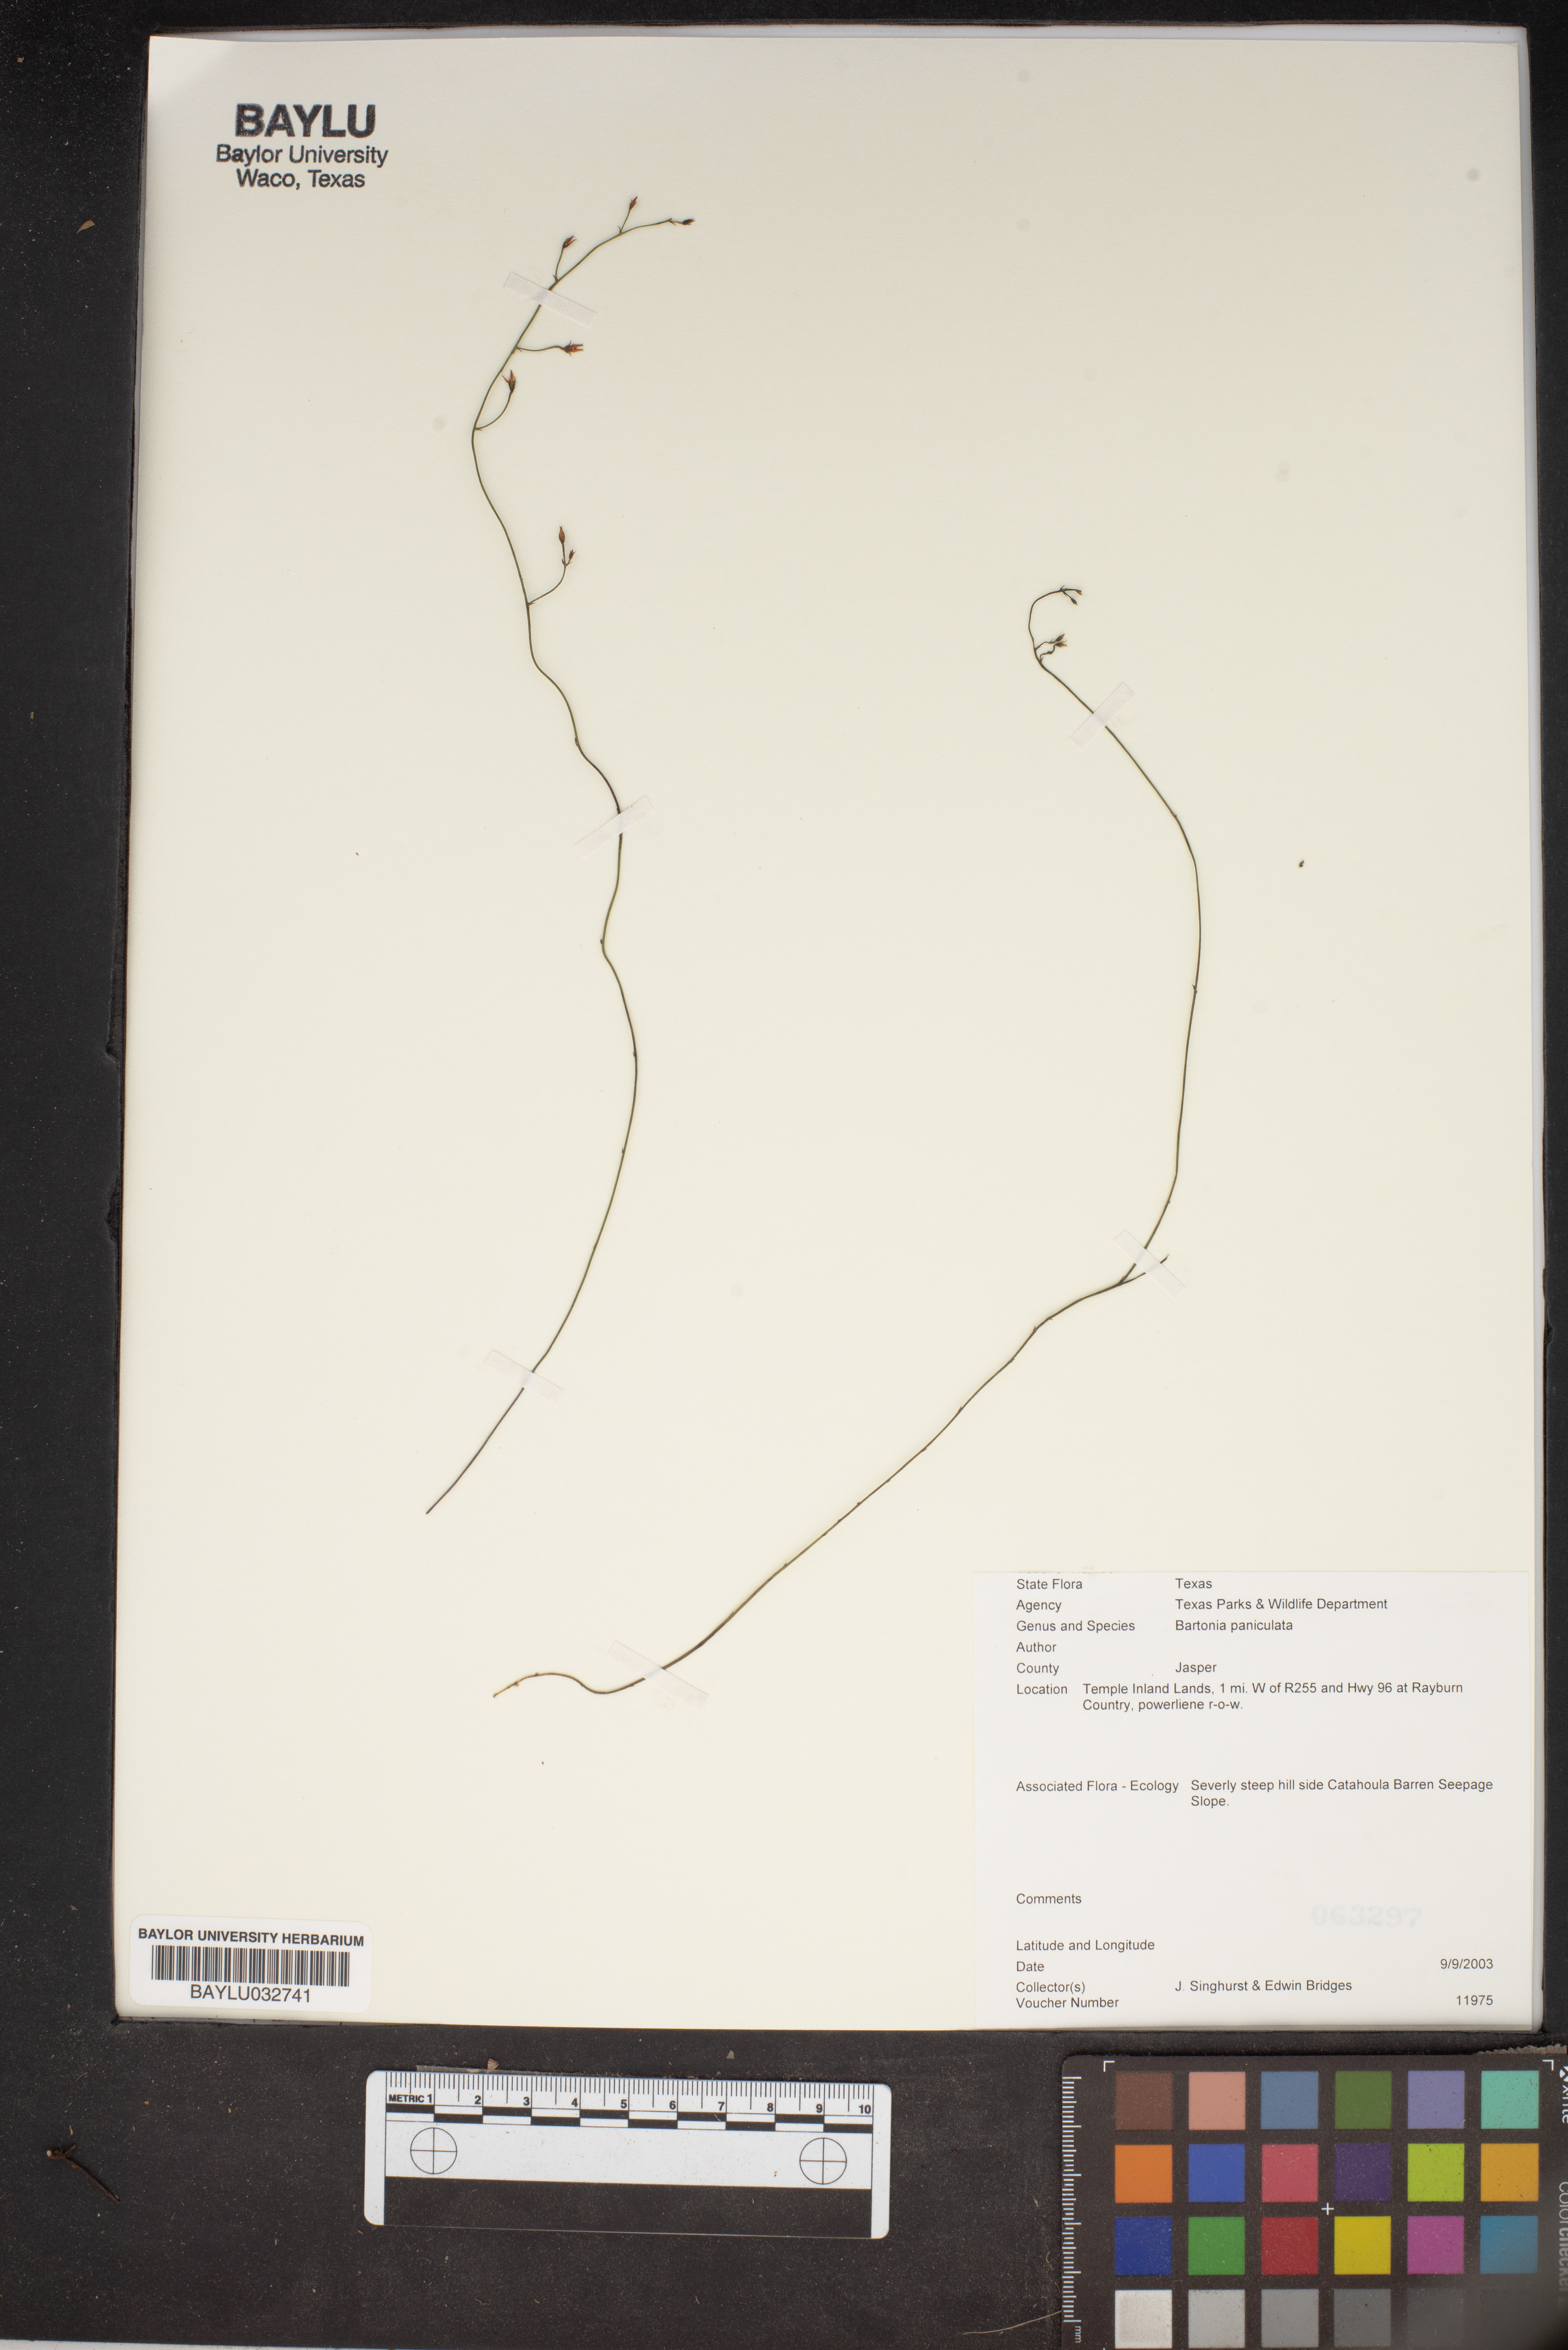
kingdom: Plantae
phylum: Tracheophyta
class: Magnoliopsida
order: Gentianales
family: Gentianaceae
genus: Bartonia
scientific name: Bartonia paniculata
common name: Branched bartonia
